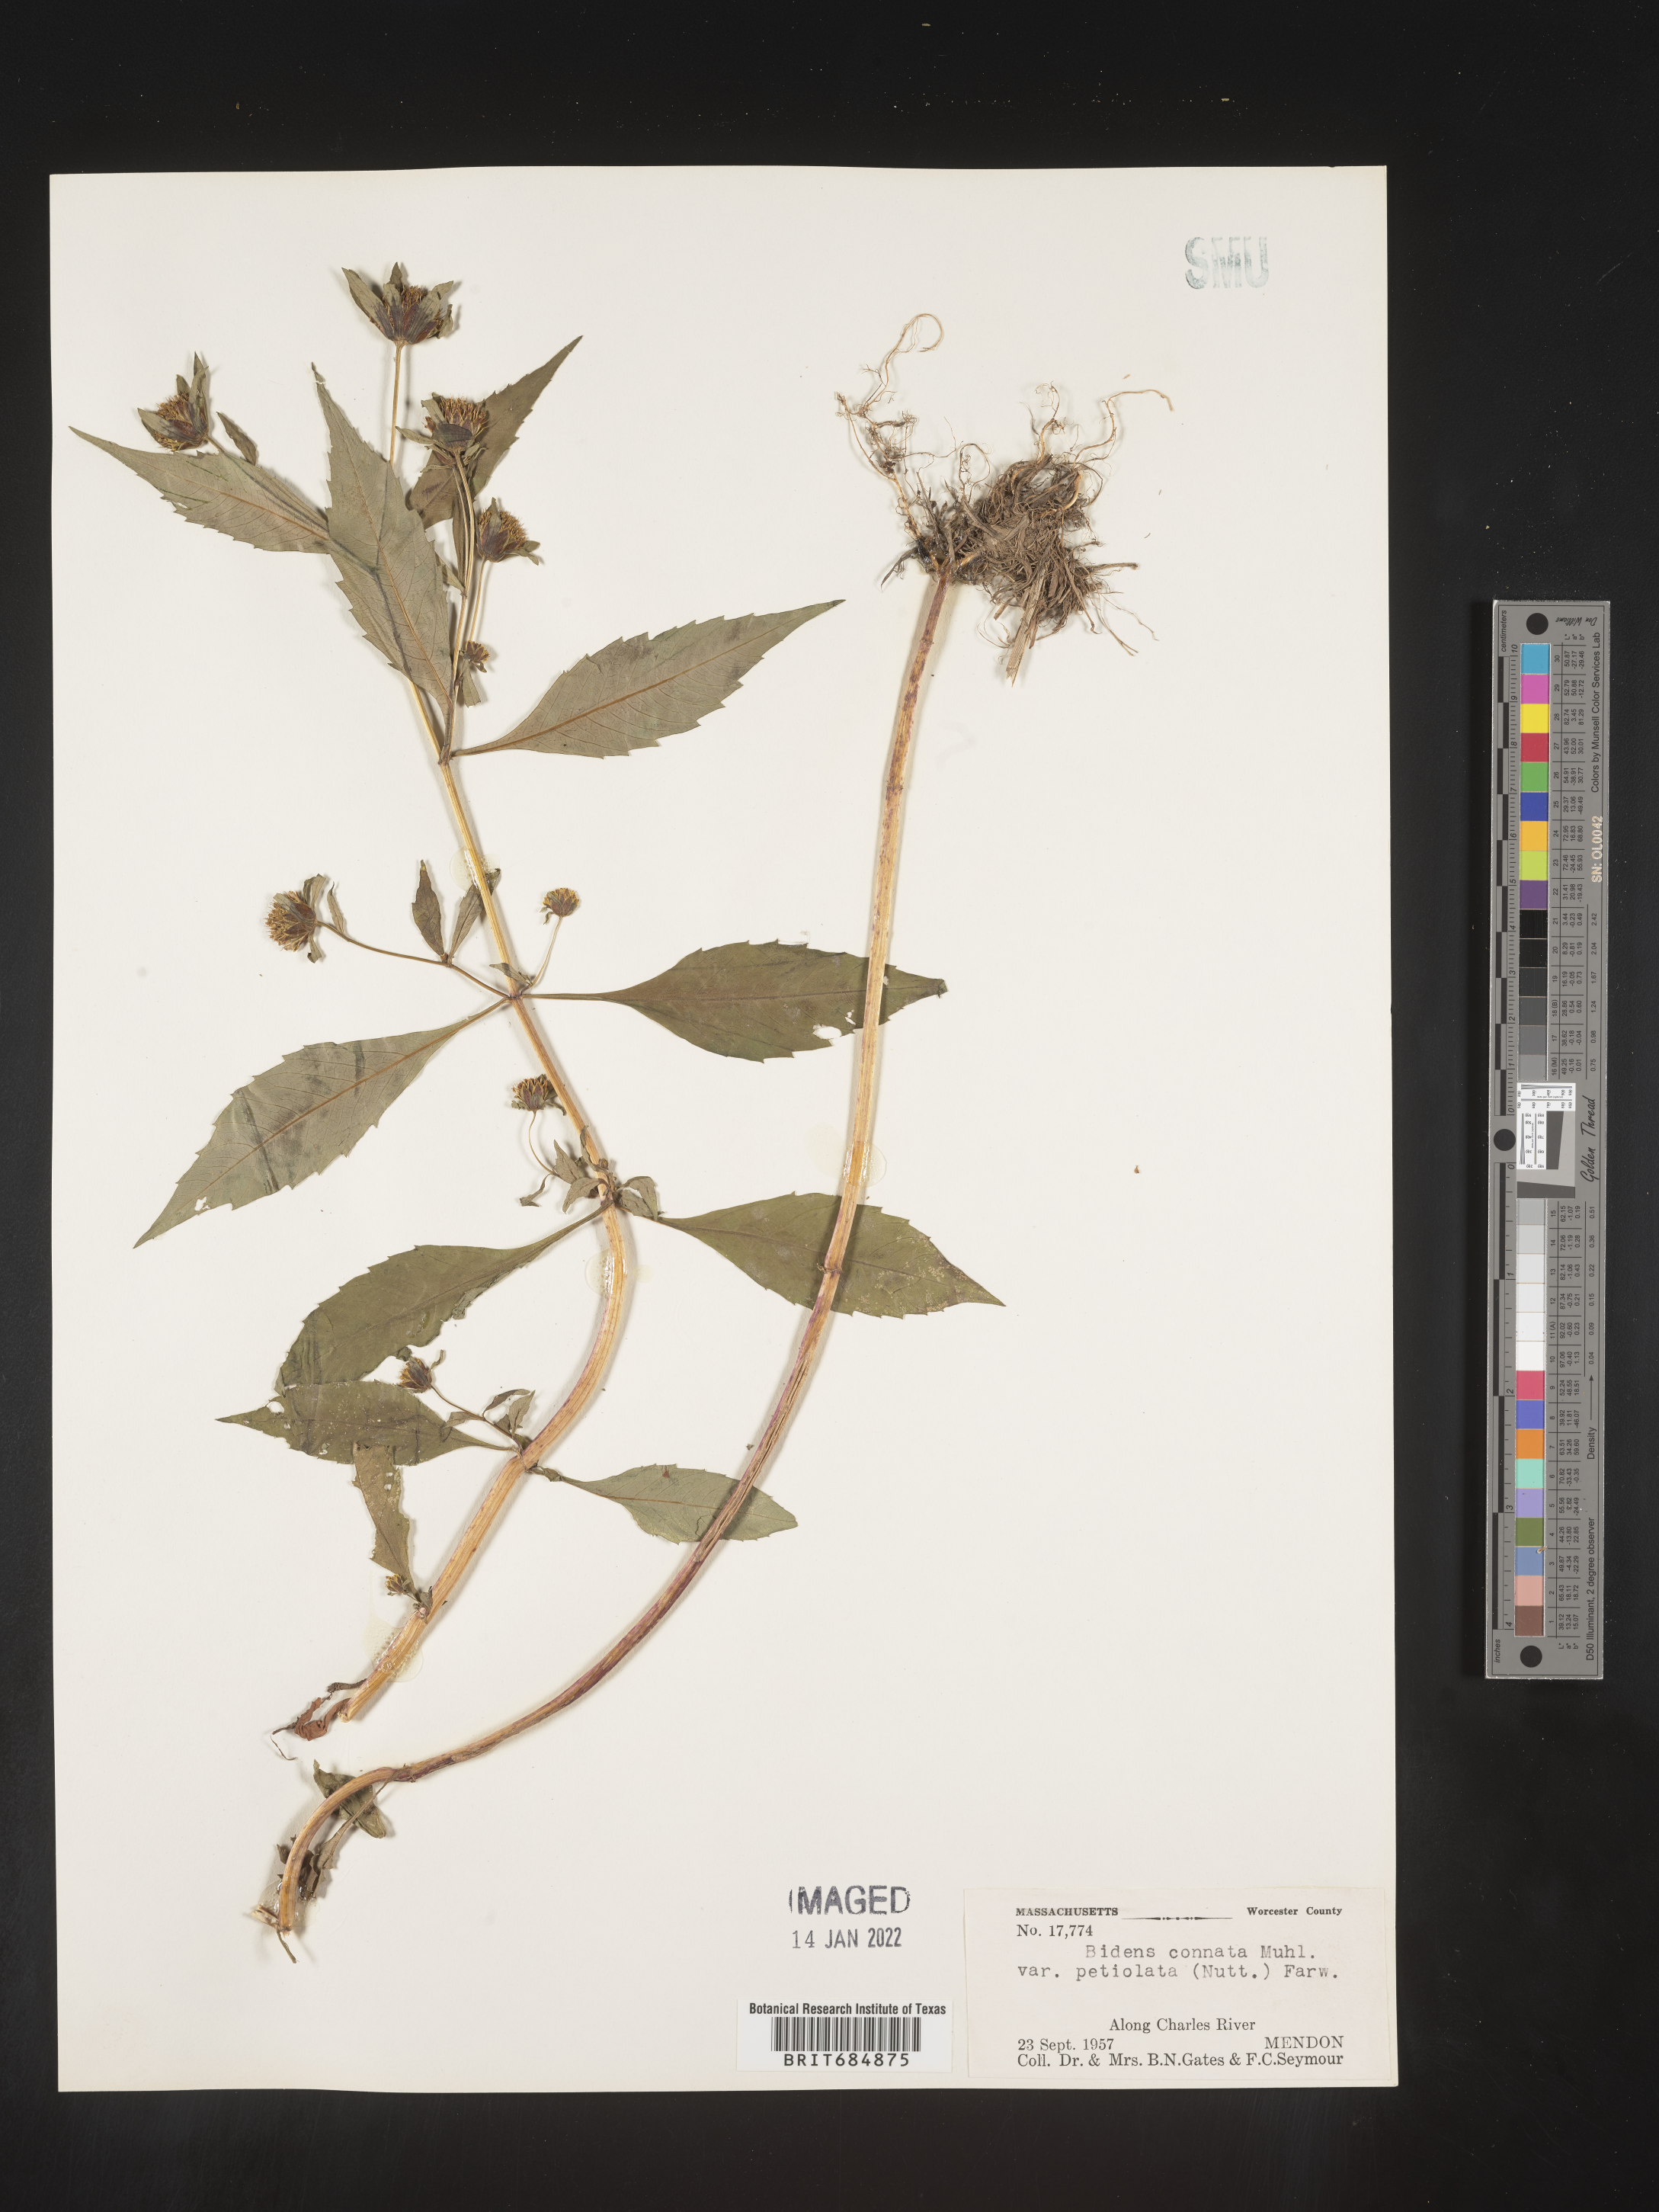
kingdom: Plantae
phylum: Tracheophyta
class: Magnoliopsida
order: Asterales
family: Asteraceae
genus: Bidens
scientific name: Bidens tripartita
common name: Trifid bur-marigold
